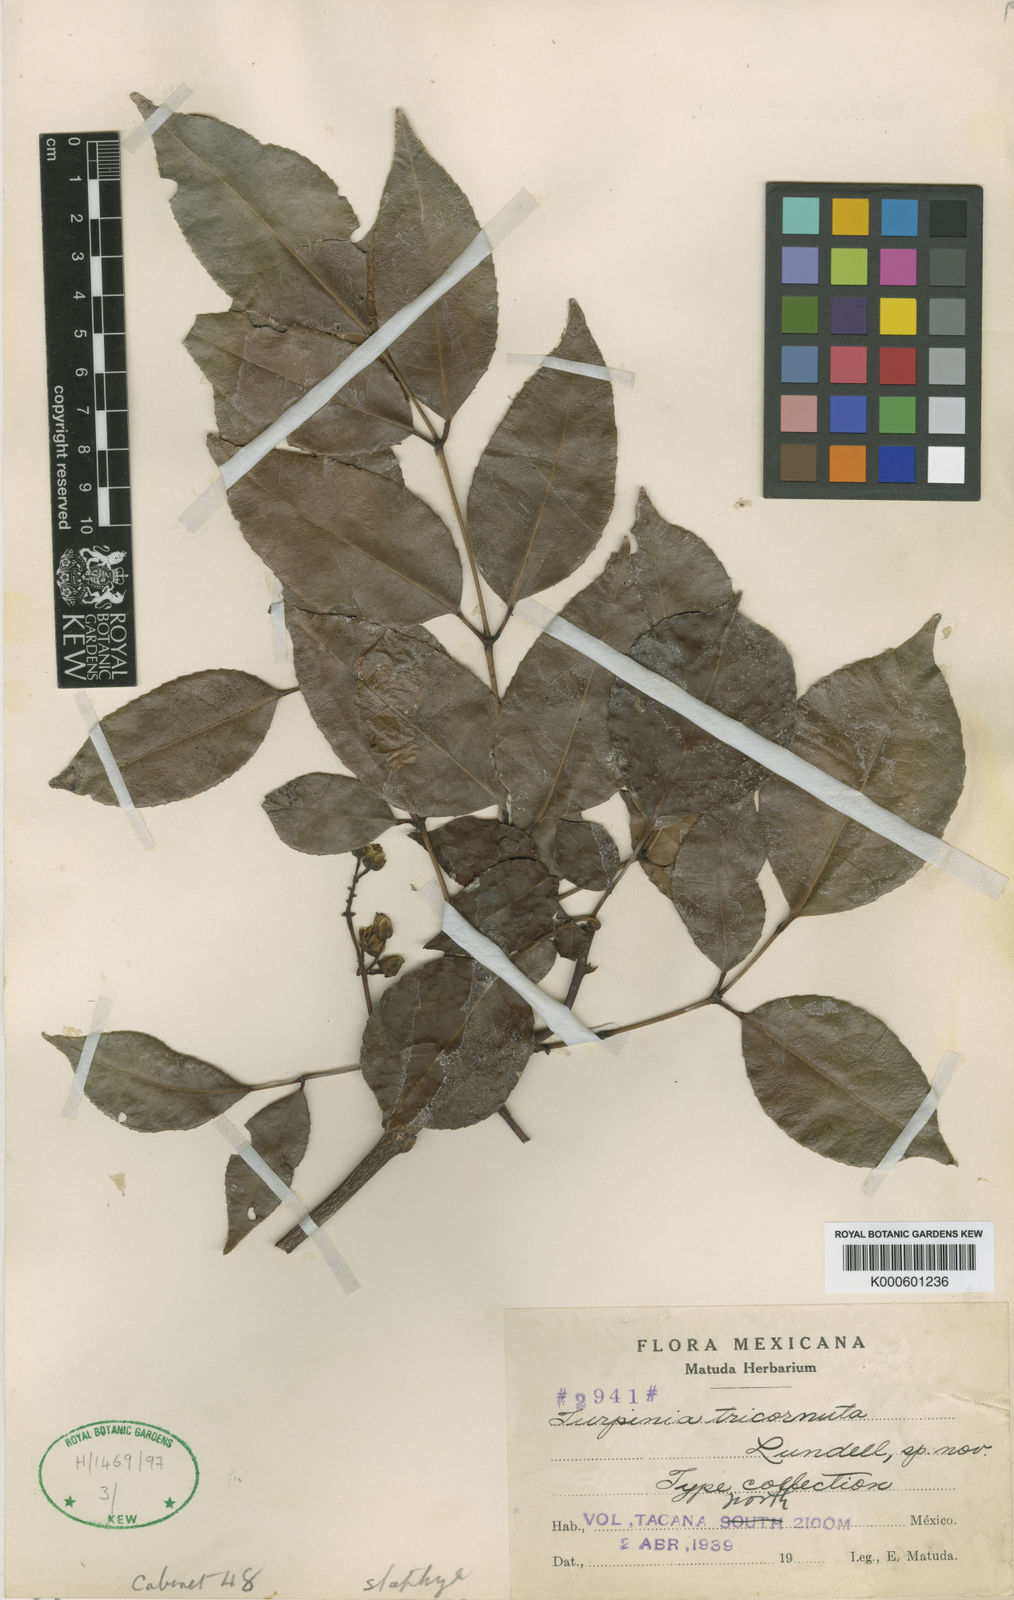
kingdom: Plantae
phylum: Tracheophyta
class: Magnoliopsida
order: Crossosomatales
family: Staphyleaceae
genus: Turpinia
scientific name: Turpinia tricornuta
